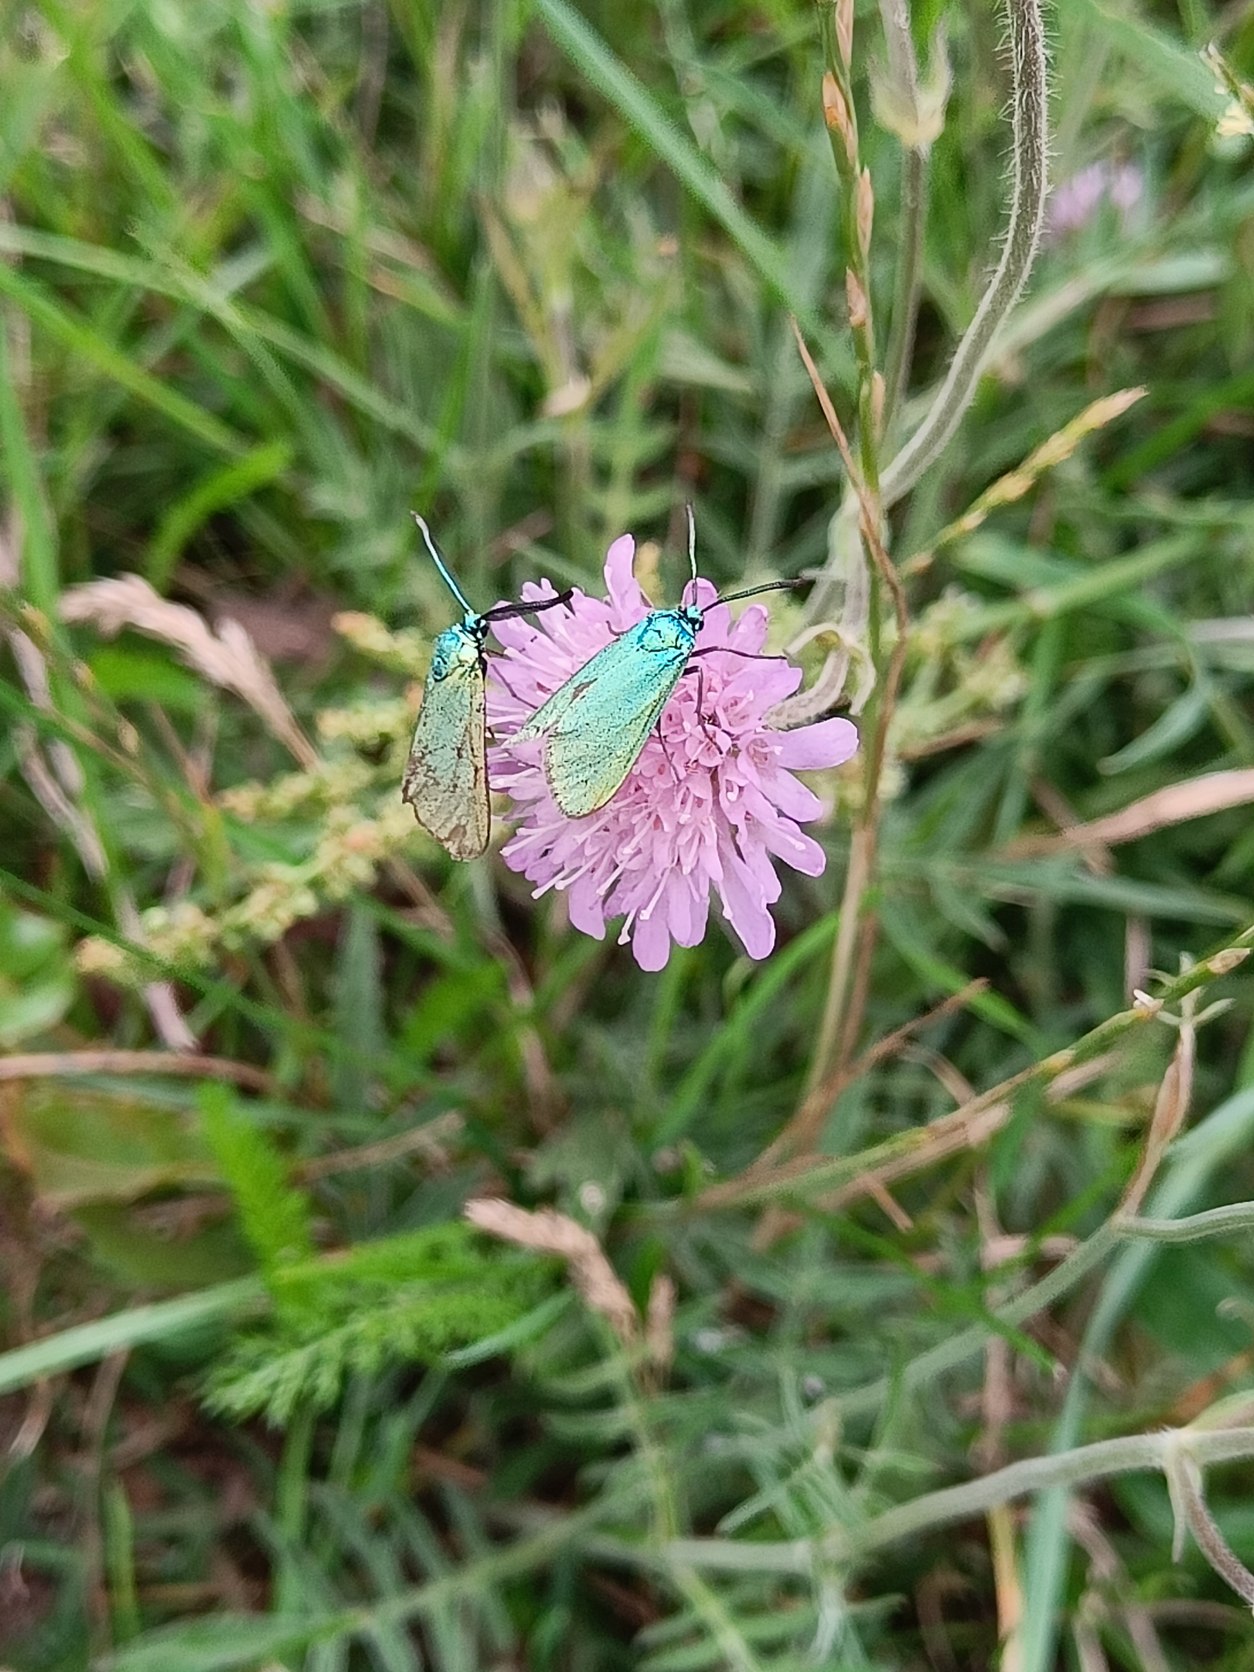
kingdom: Animalia
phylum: Arthropoda
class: Insecta
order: Lepidoptera
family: Zygaenidae
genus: Adscita
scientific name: Adscita statices
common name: Metalvinge
